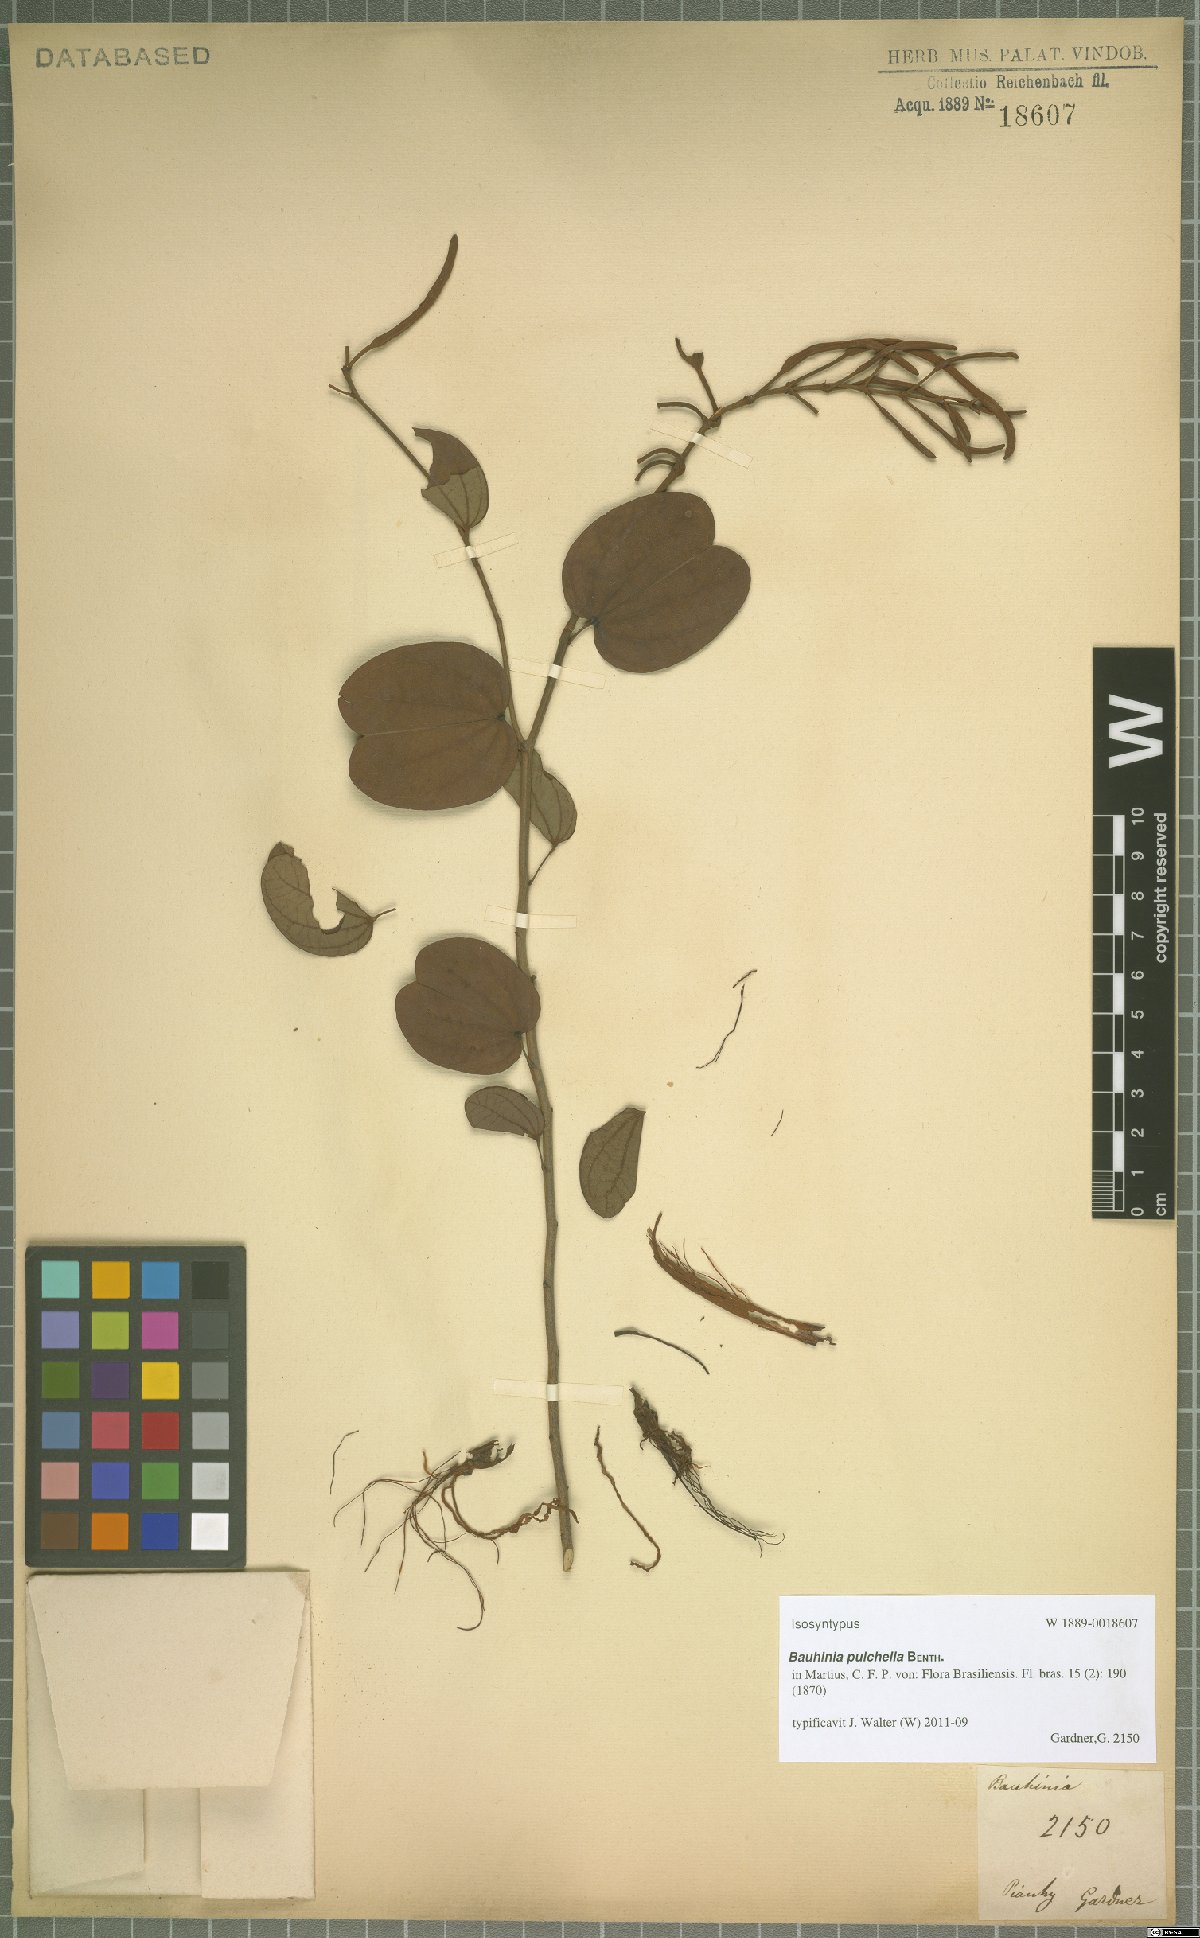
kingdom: Plantae
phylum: Tracheophyta
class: Magnoliopsida
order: Fabales
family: Fabaceae
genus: Bauhinia
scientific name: Bauhinia pulchella
